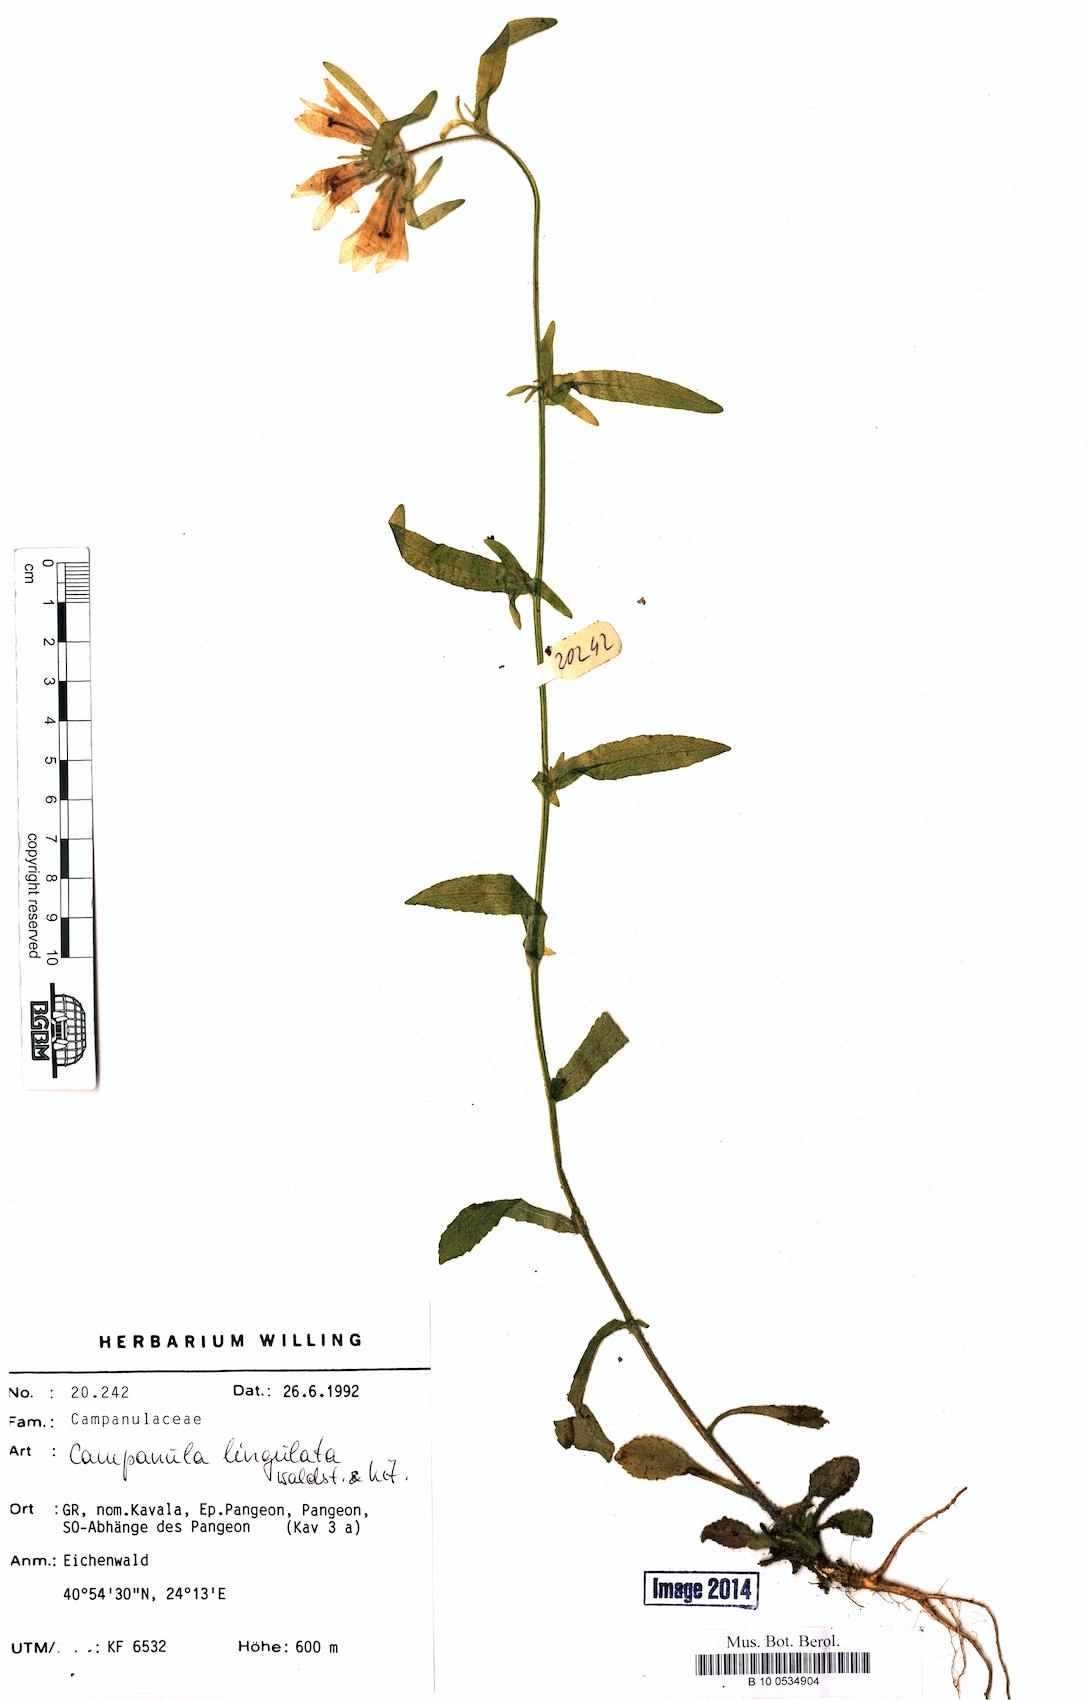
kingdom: Plantae
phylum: Tracheophyta
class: Magnoliopsida
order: Asterales
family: Campanulaceae
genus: Campanula
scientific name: Campanula lingulata
